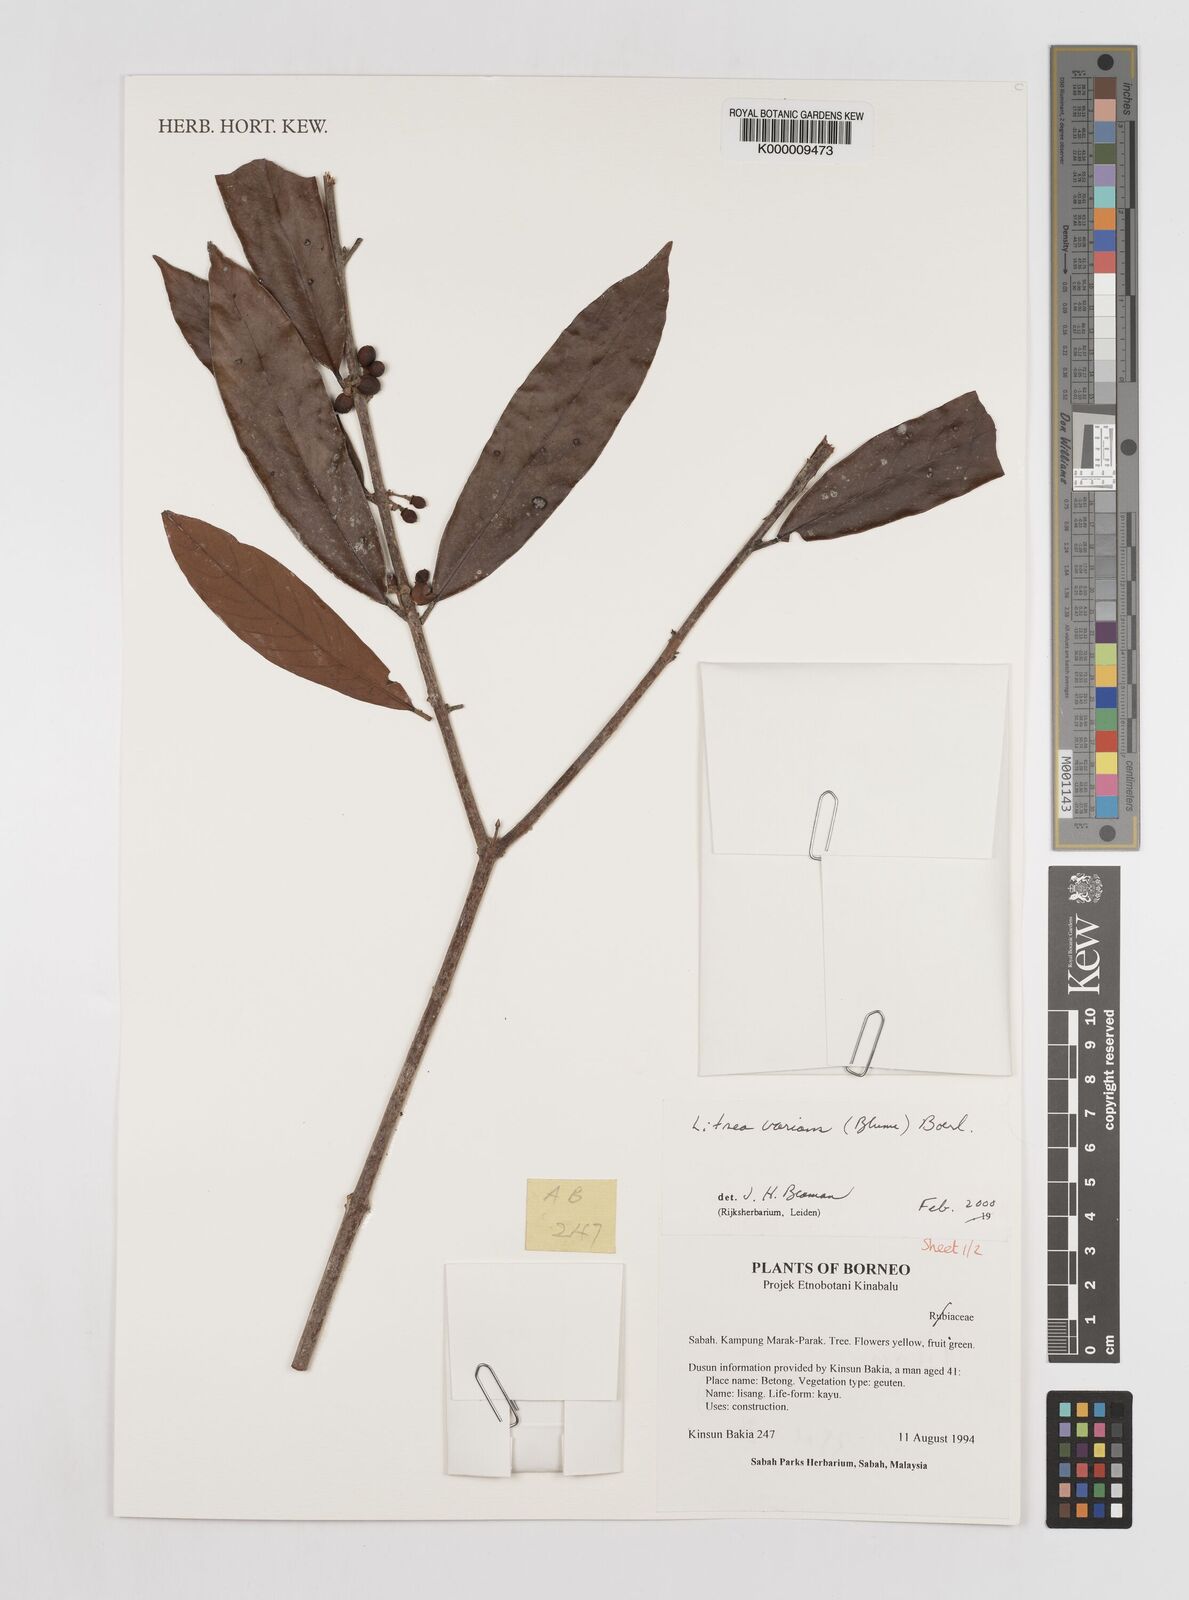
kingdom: Plantae
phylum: Tracheophyta
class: Magnoliopsida
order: Laurales
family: Lauraceae
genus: Litsea
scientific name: Litsea varians
